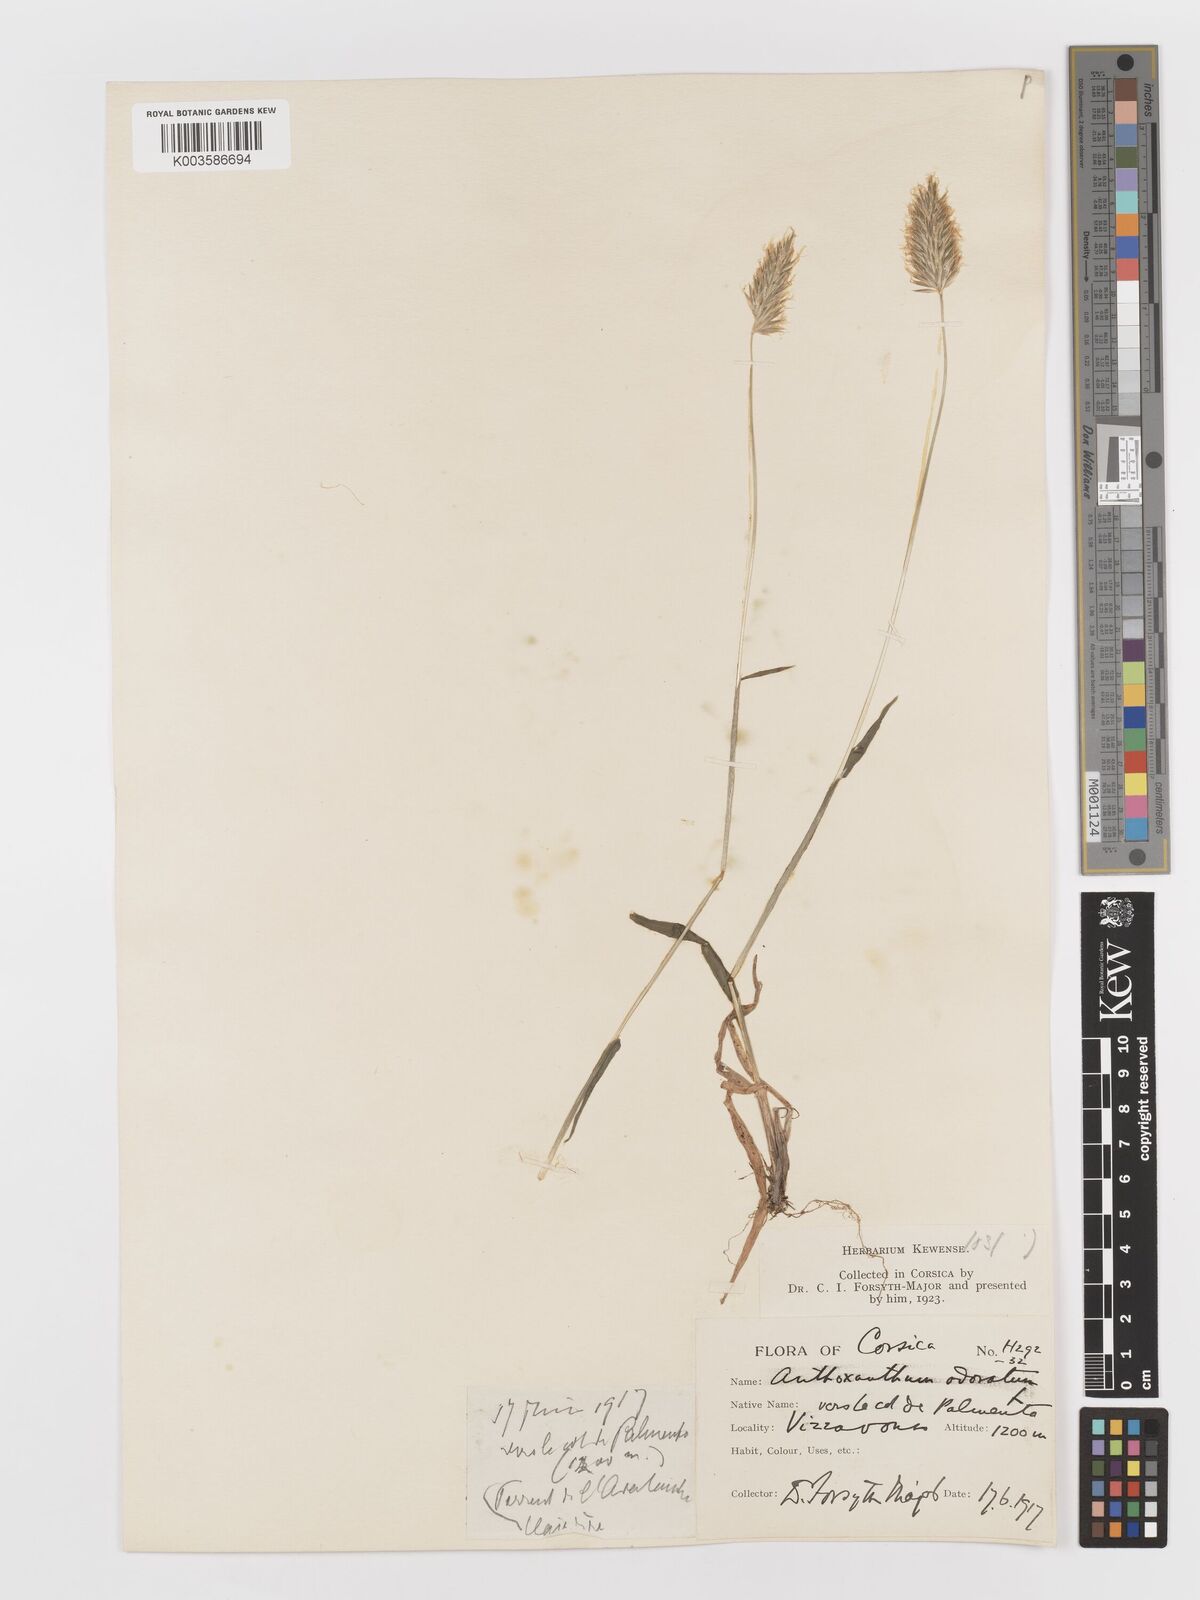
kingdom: Plantae
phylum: Tracheophyta
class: Liliopsida
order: Poales
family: Poaceae
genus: Anthoxanthum
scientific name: Anthoxanthum odoratum
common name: Sweet vernalgrass
